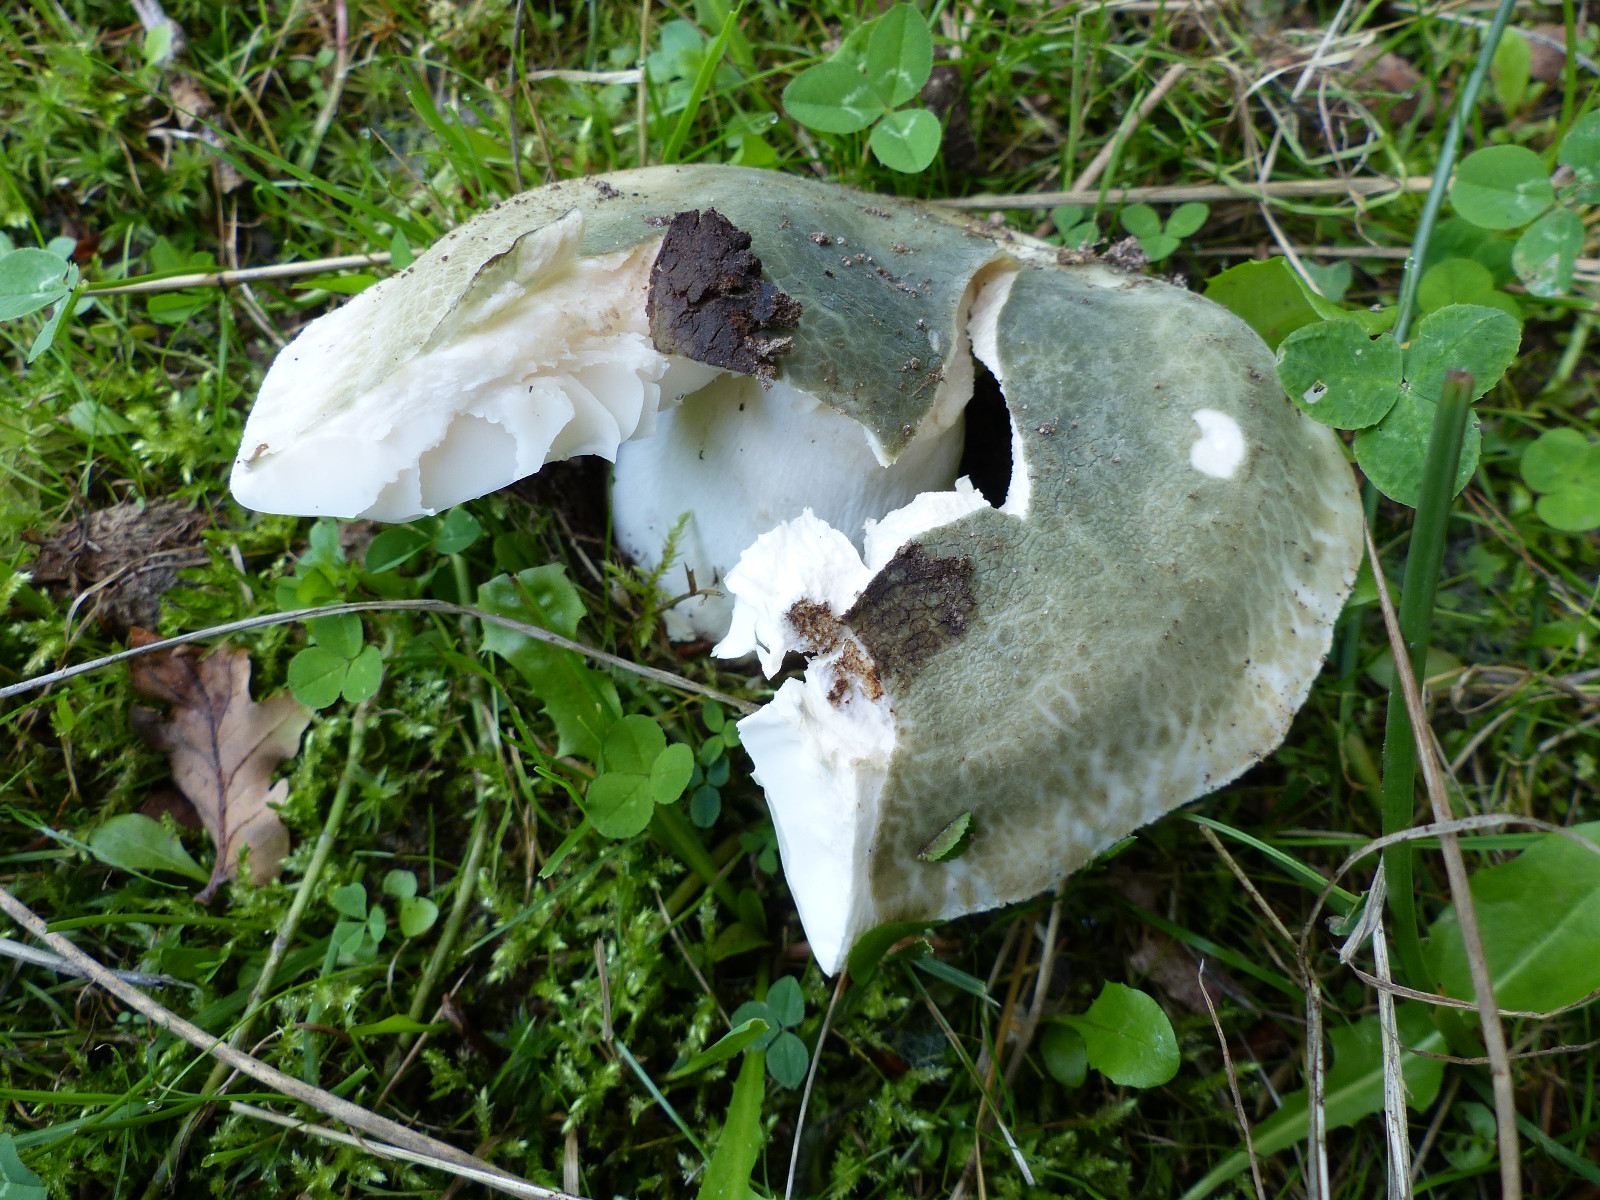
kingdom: Fungi
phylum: Basidiomycota
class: Agaricomycetes
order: Russulales
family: Russulaceae
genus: Russula
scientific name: Russula virescens
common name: spanskgrøn skørhat
